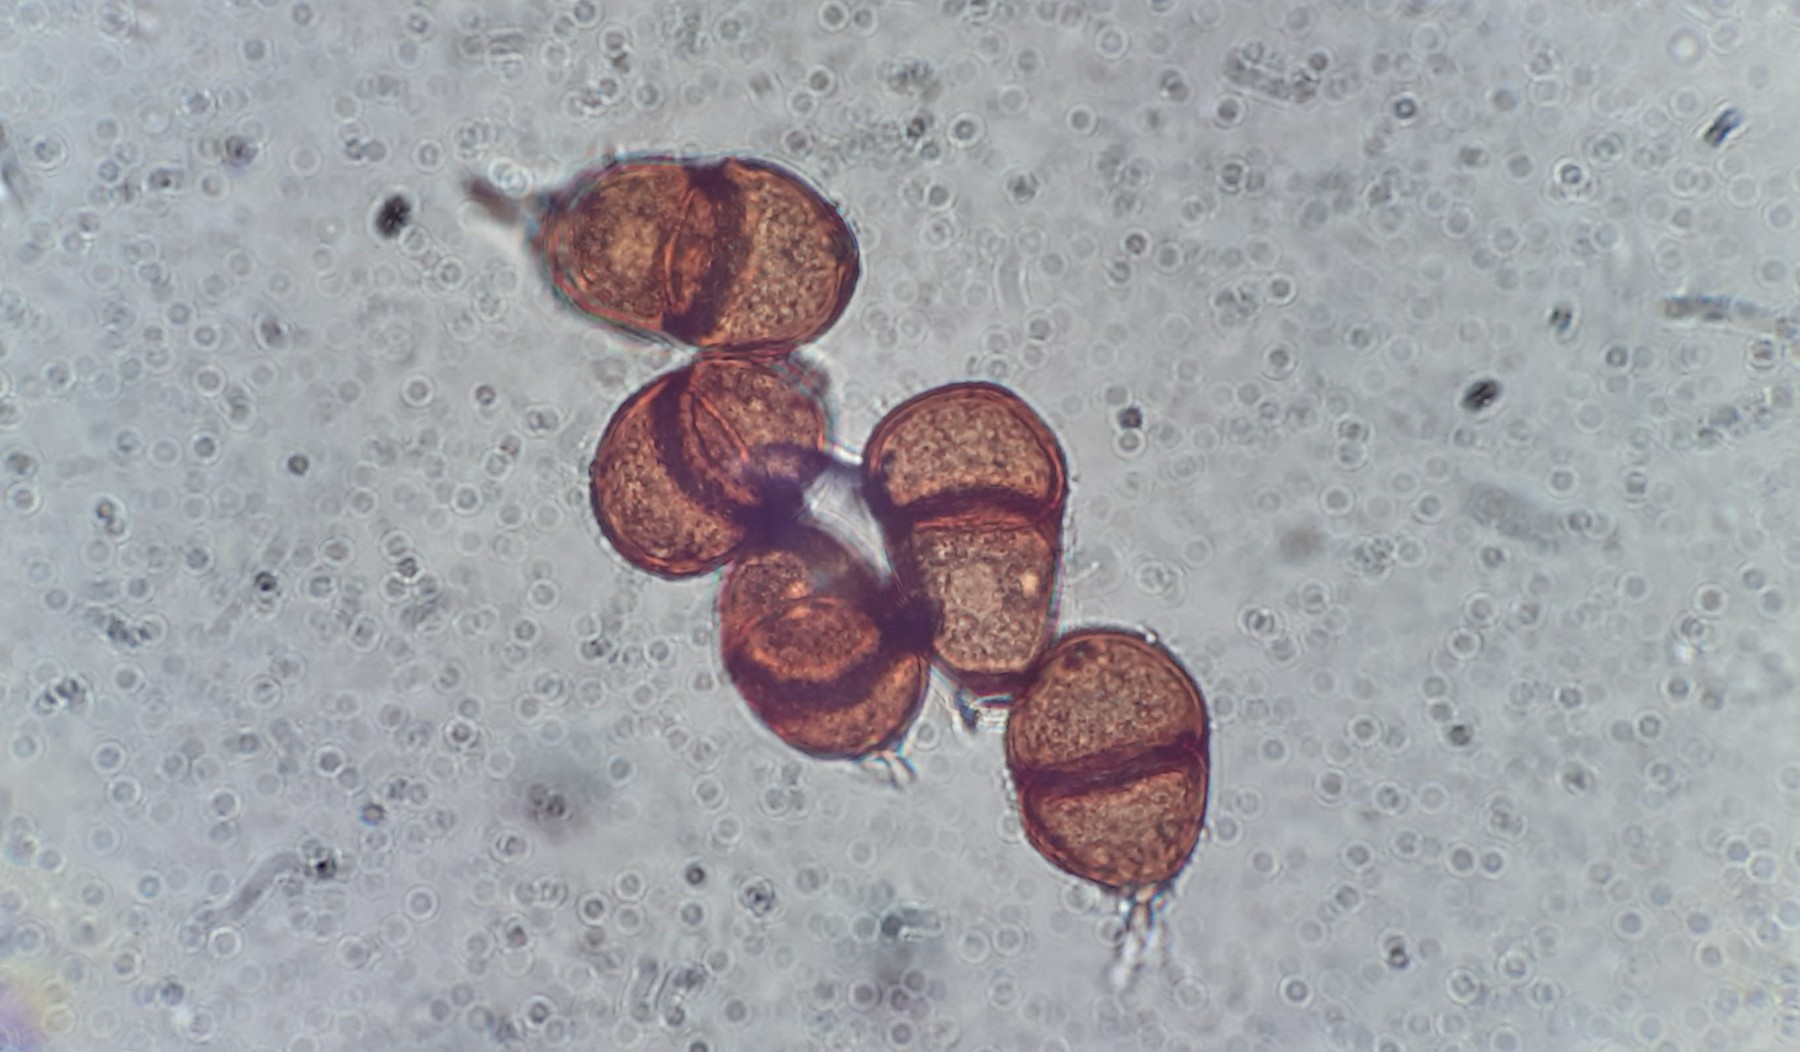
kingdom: Fungi
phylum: Basidiomycota
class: Pucciniomycetes
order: Pucciniales
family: Pucciniaceae
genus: Puccinia
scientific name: Puccinia variabilis
